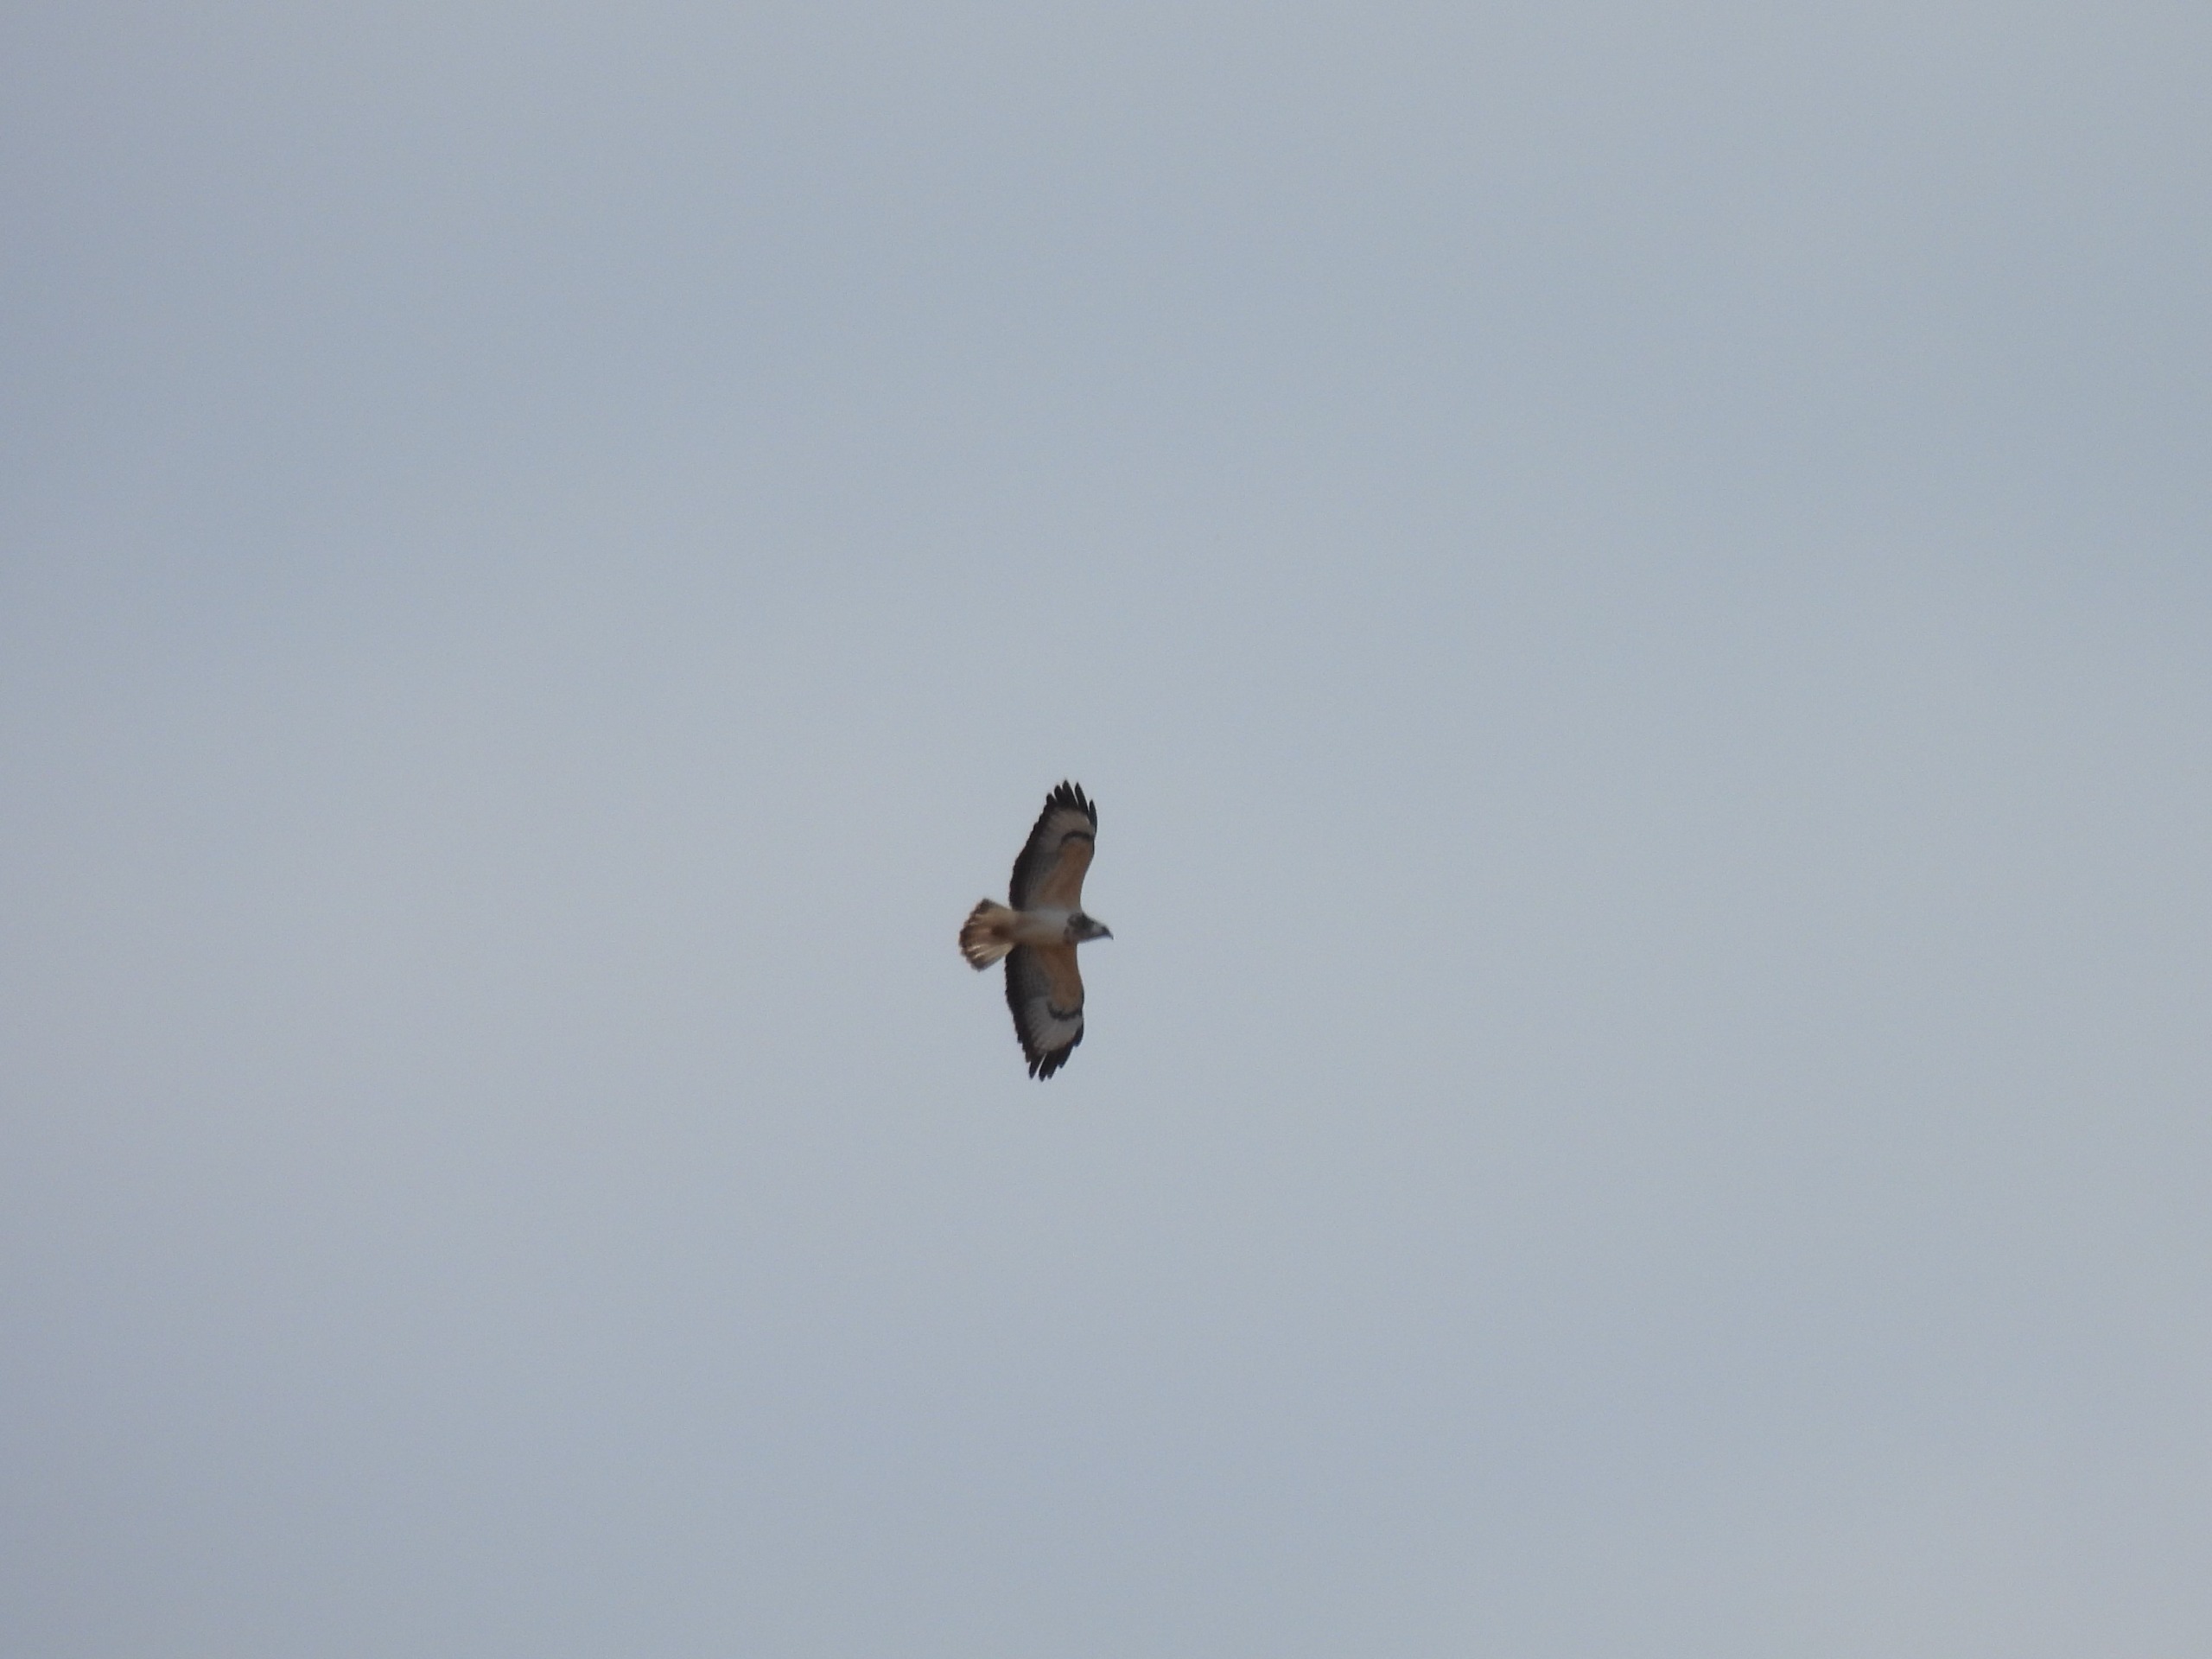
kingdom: Animalia
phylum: Chordata
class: Aves
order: Accipitriformes
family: Accipitridae
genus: Buteo
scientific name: Buteo buteo
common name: Musvåge
